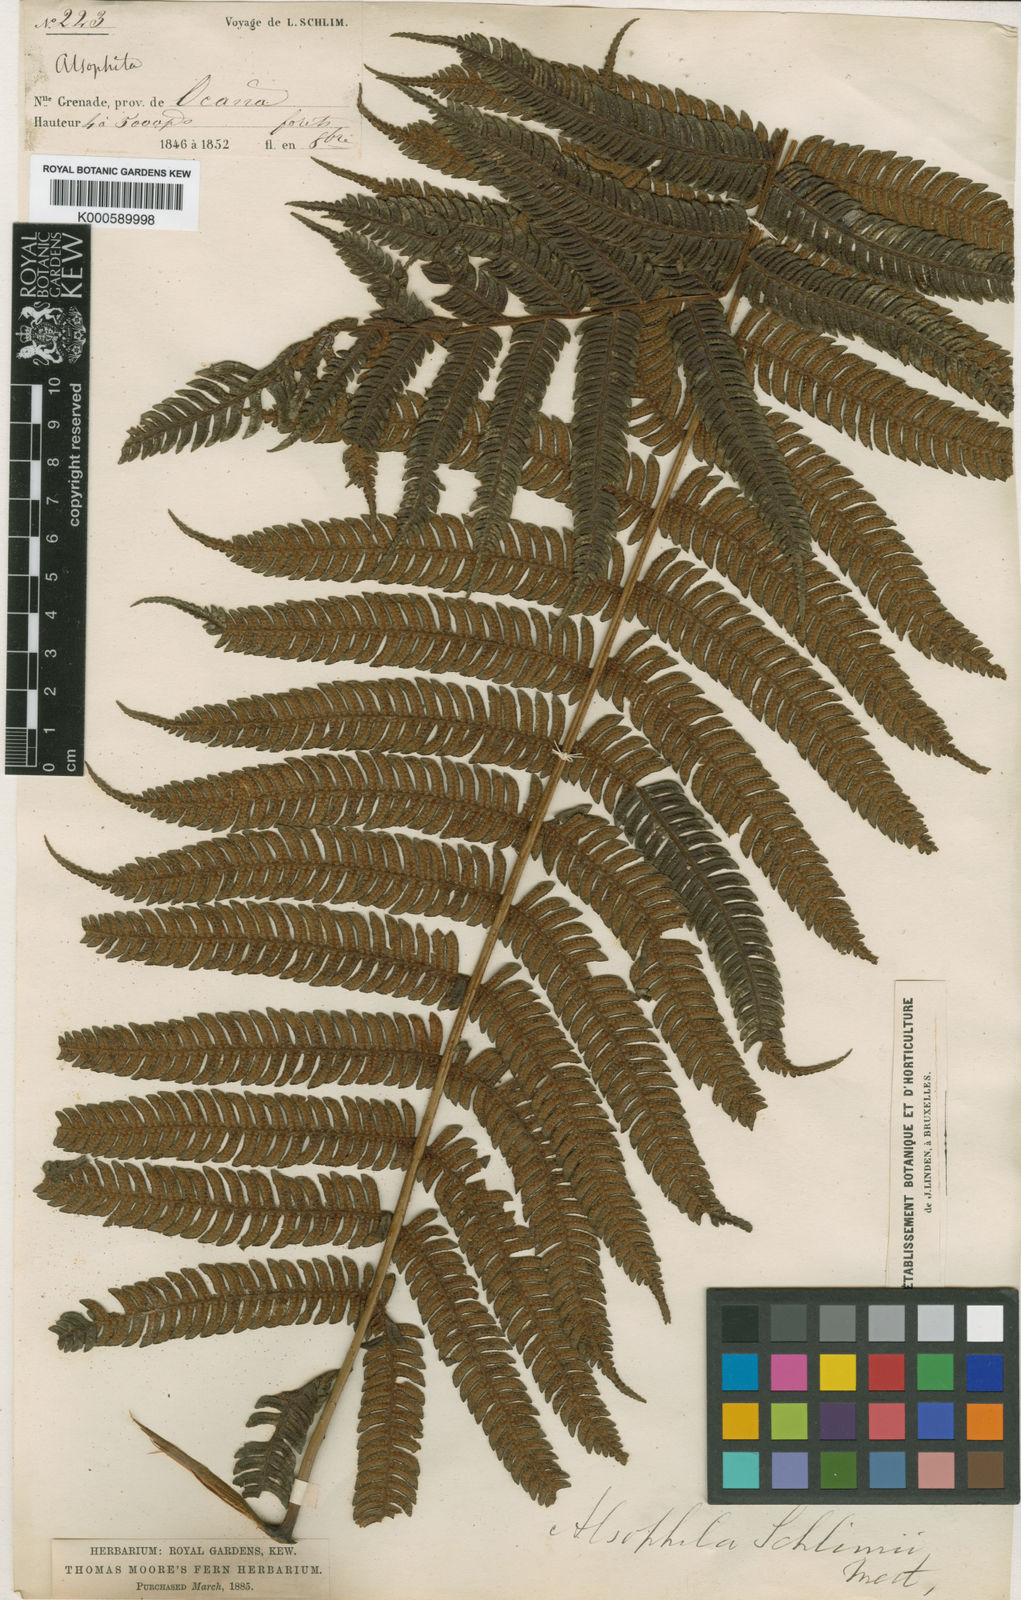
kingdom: Plantae
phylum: Tracheophyta
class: Polypodiopsida
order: Cyatheales
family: Cyatheaceae
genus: Cyathea
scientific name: Cyathea schlimii
